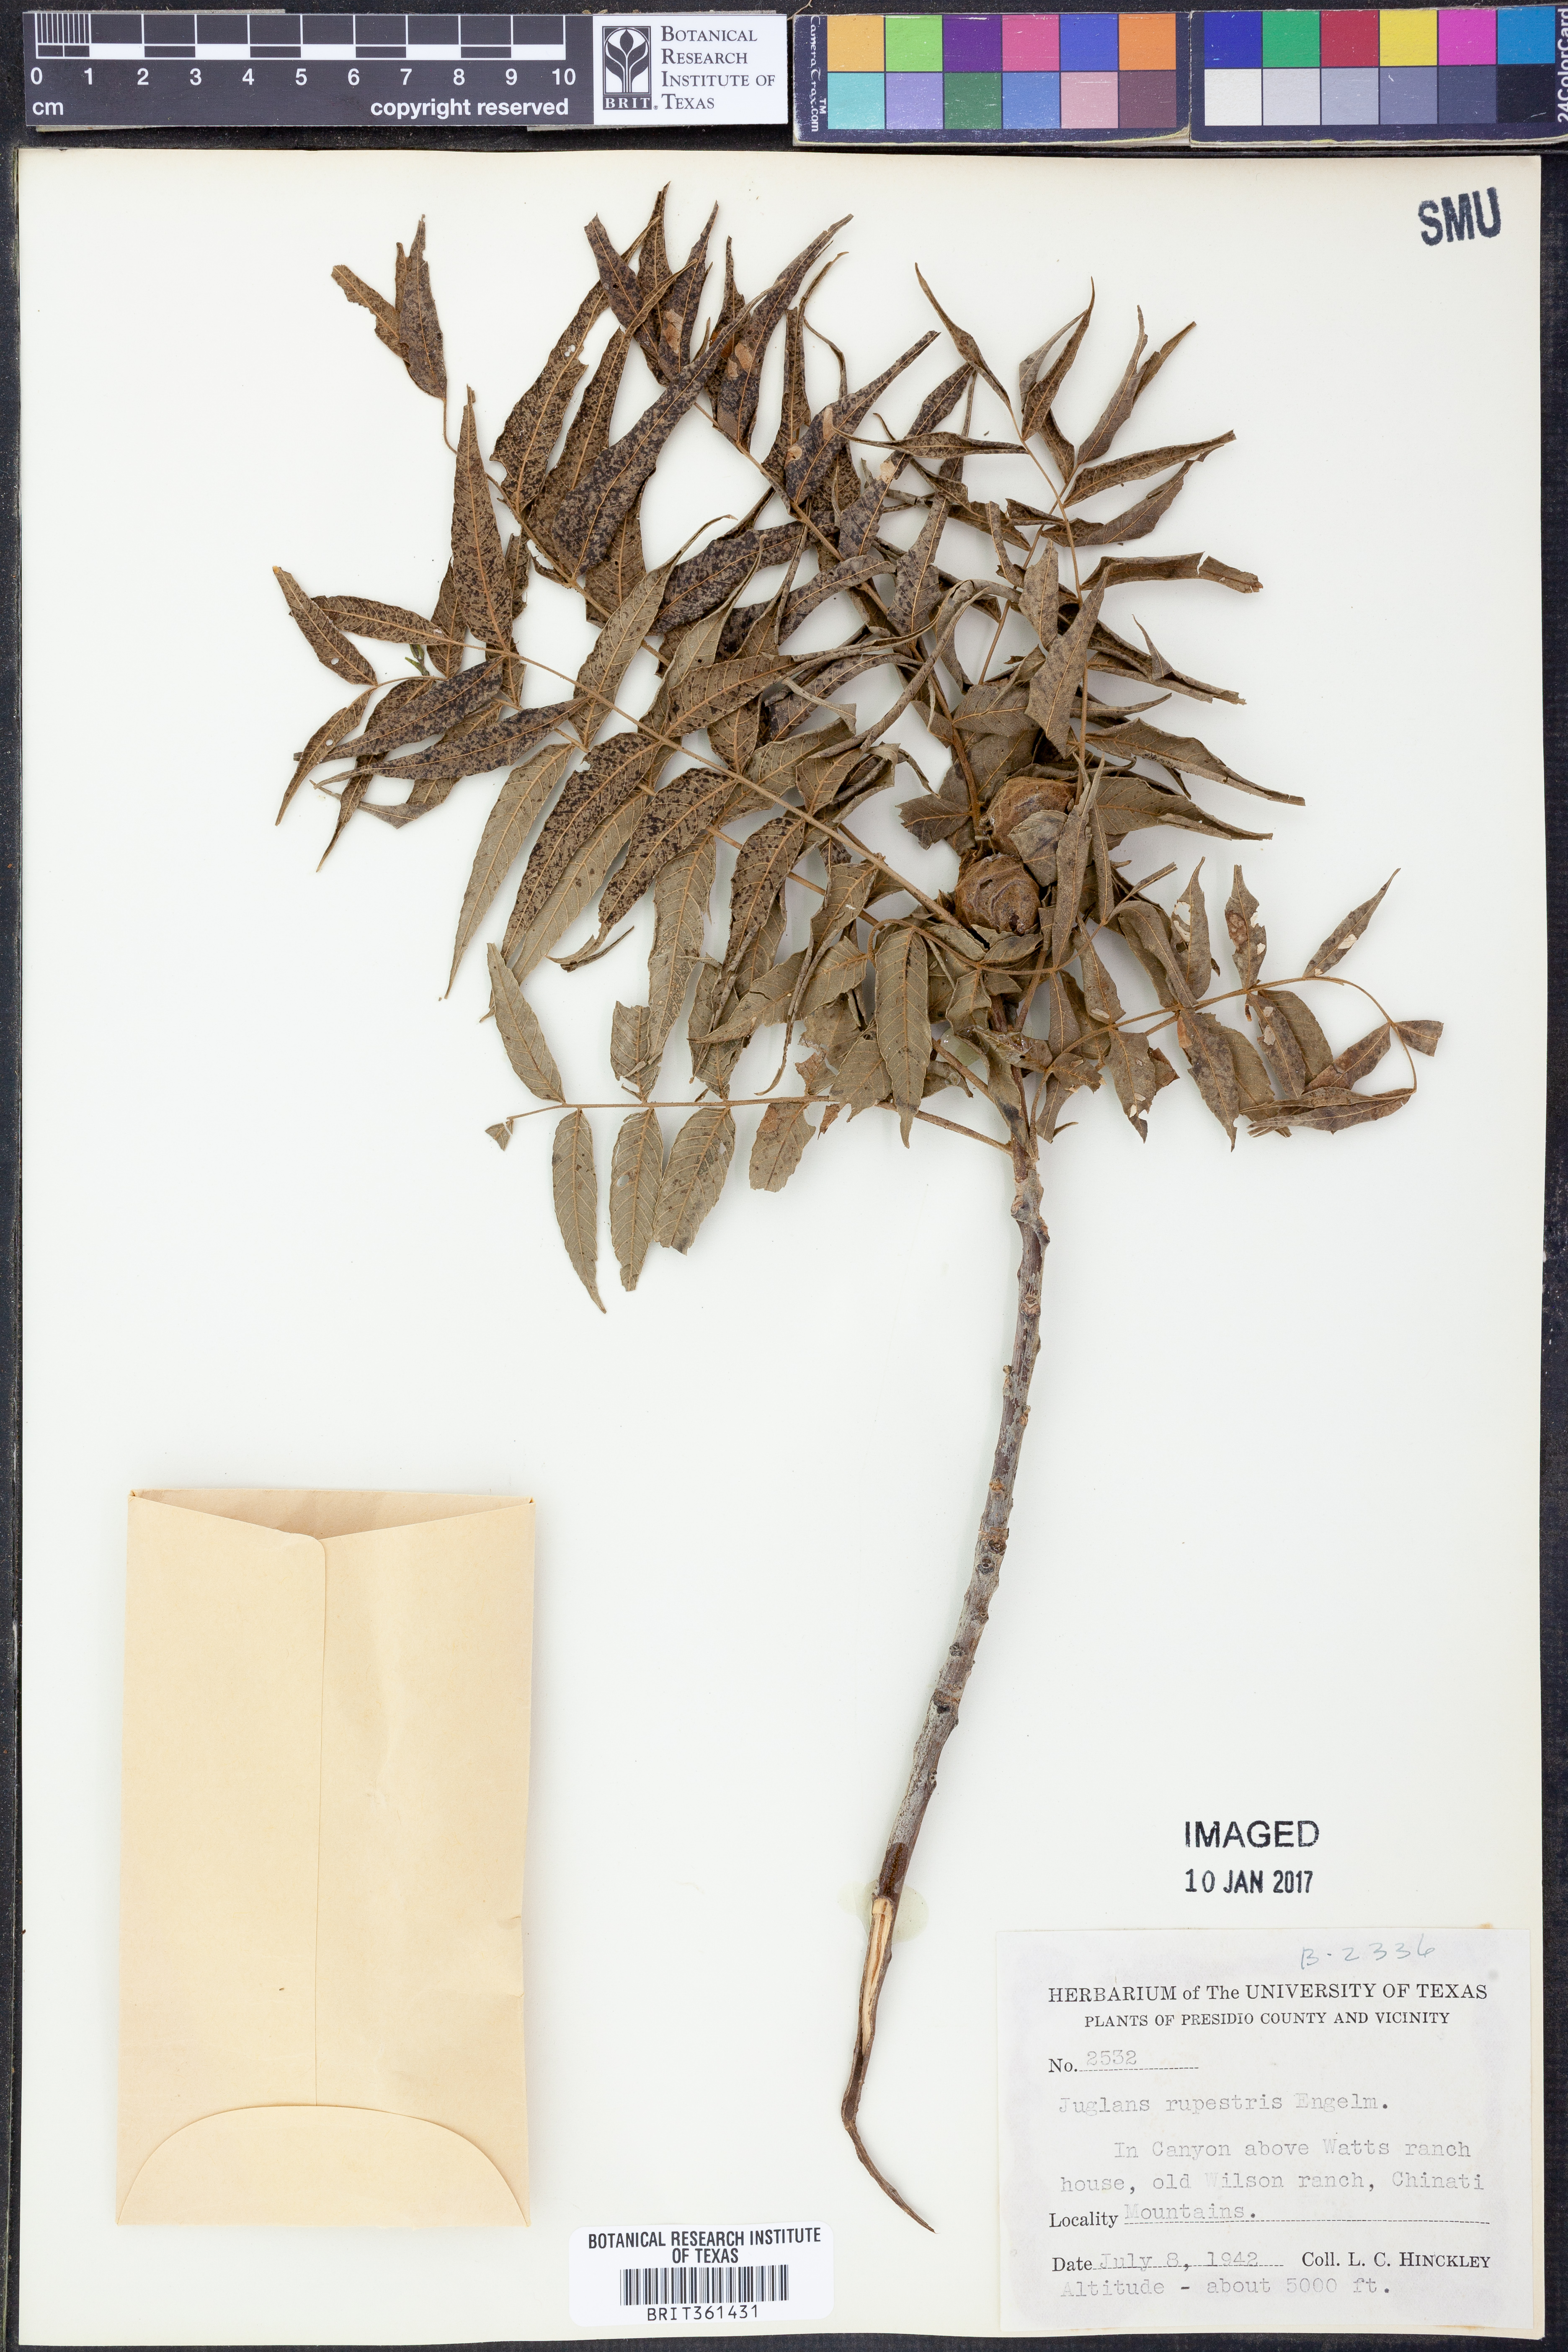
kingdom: Plantae
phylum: Tracheophyta
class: Magnoliopsida
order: Fagales
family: Juglandaceae
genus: Juglans
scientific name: Juglans microcarpa
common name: Texas walnut
